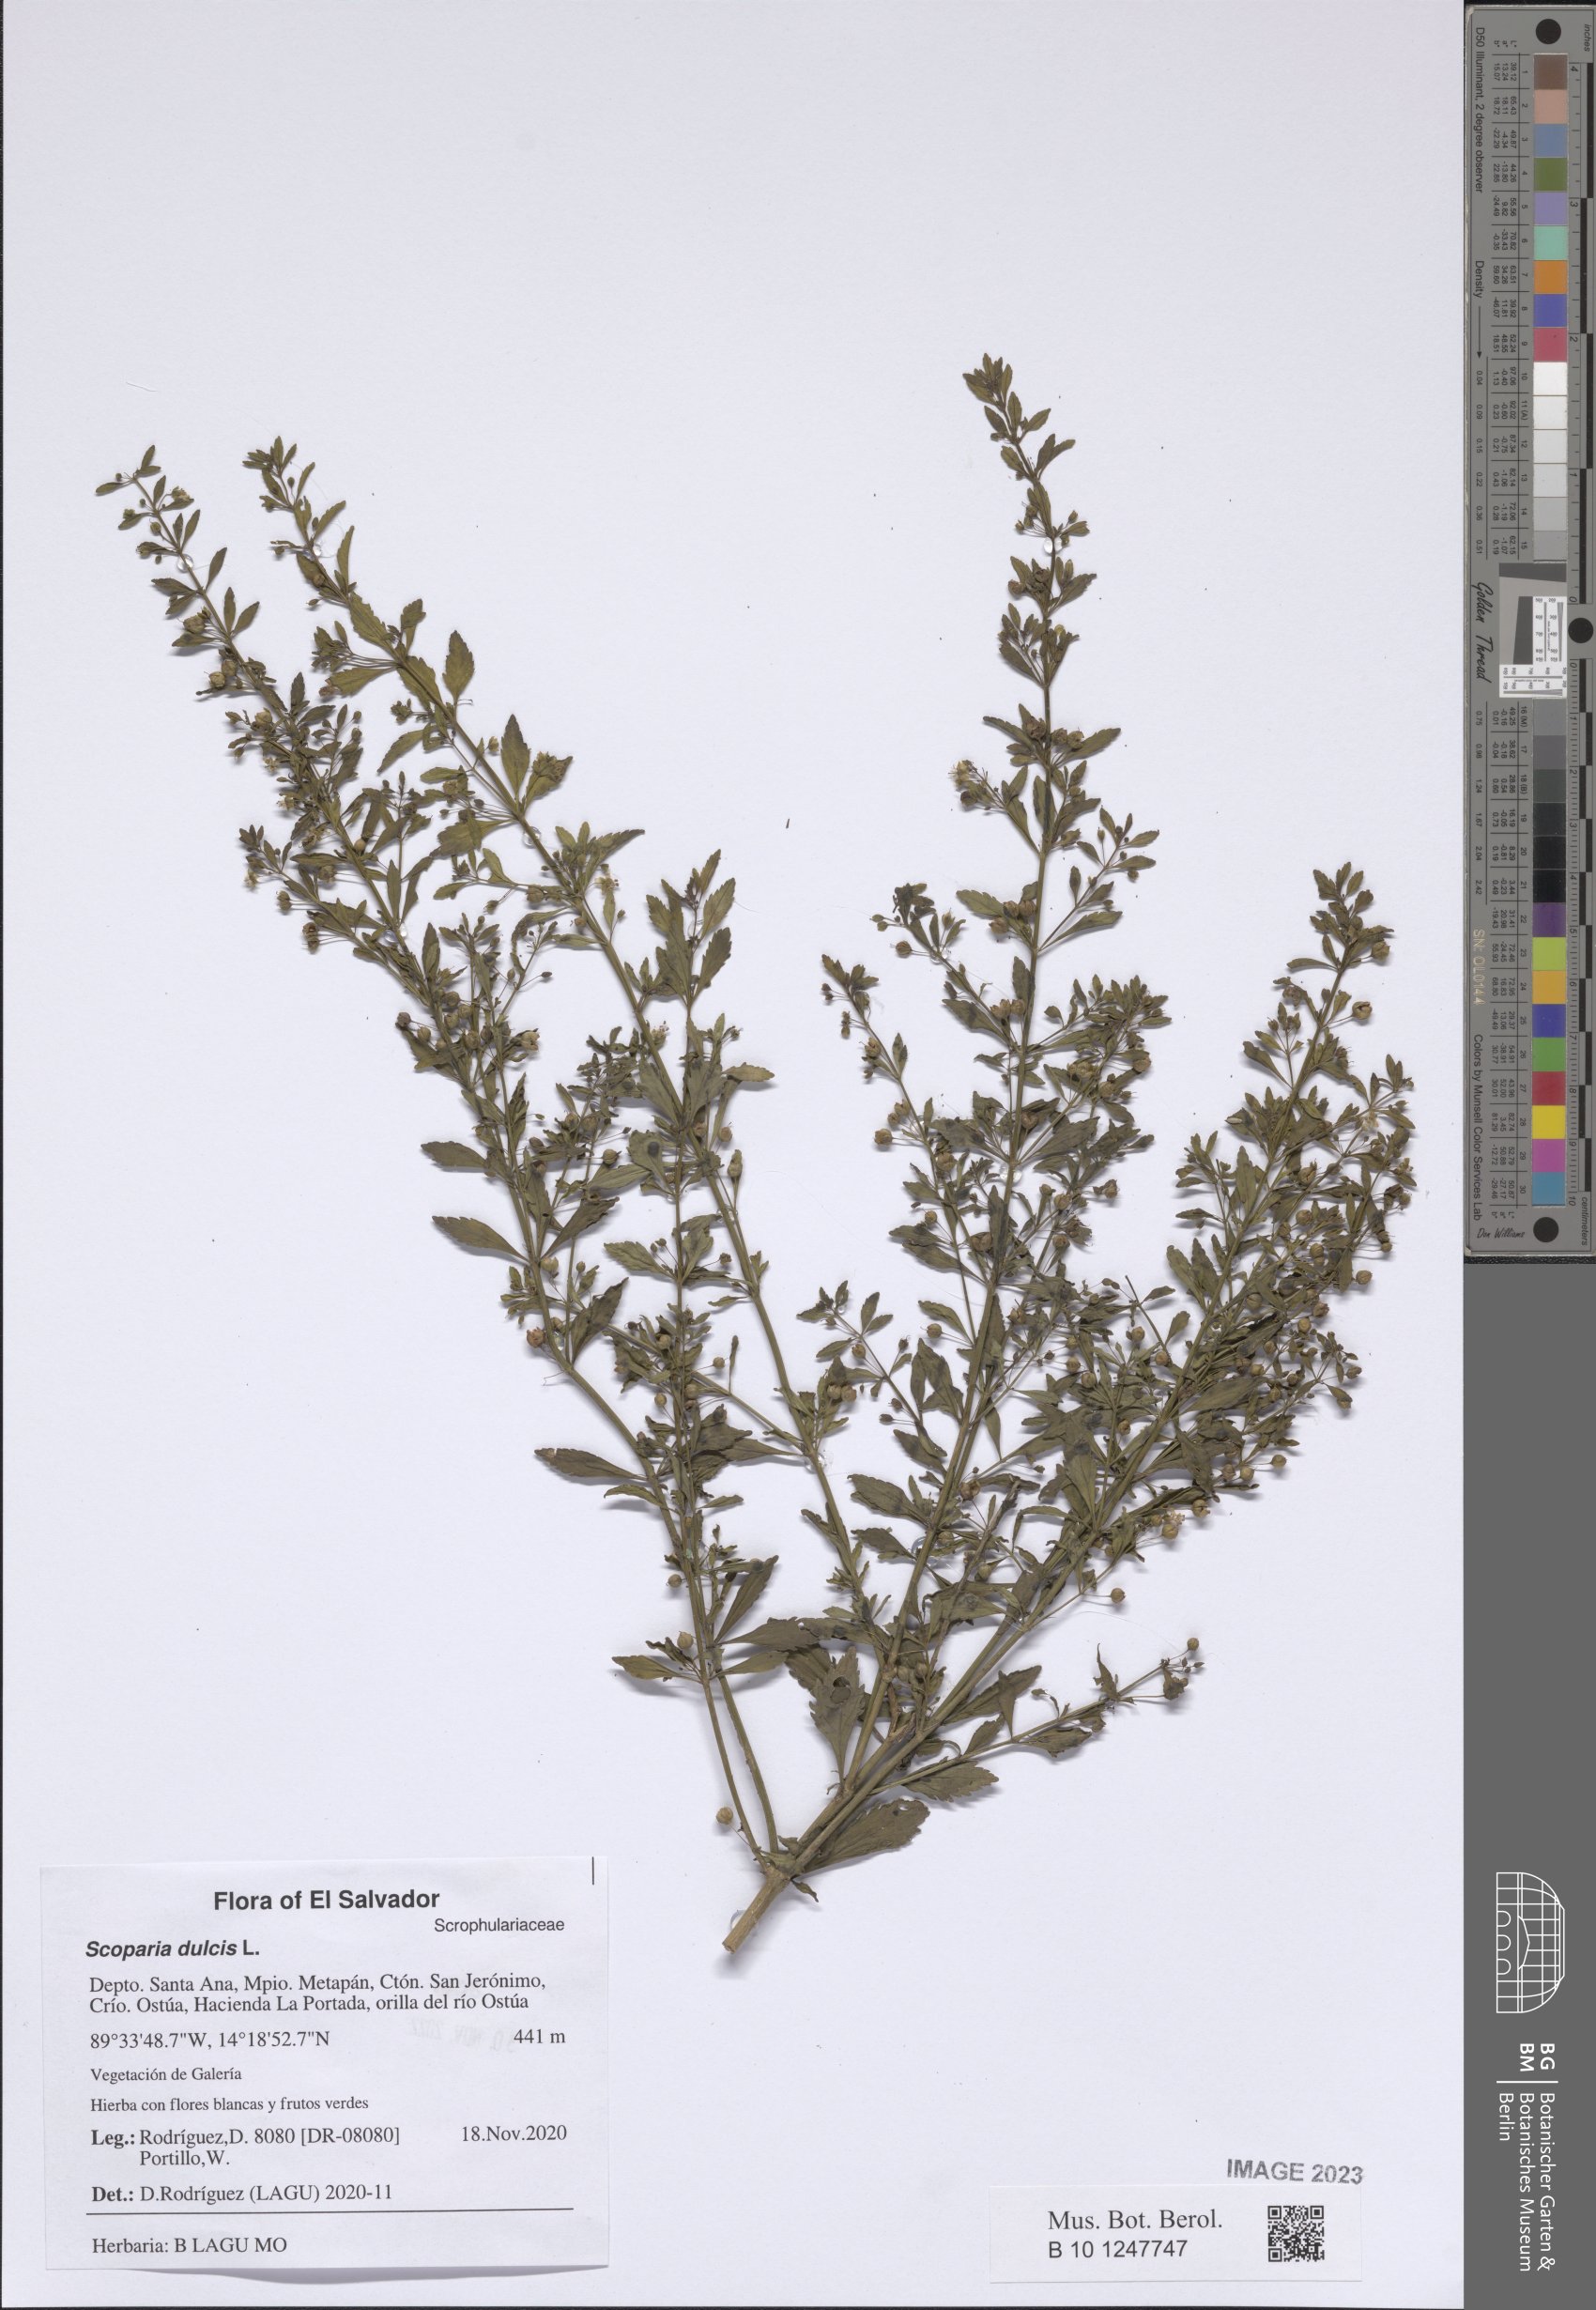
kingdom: Plantae
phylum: Tracheophyta
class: Magnoliopsida
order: Lamiales
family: Plantaginaceae
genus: Scoparia
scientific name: Scoparia dulcis
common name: Scoparia-weed
